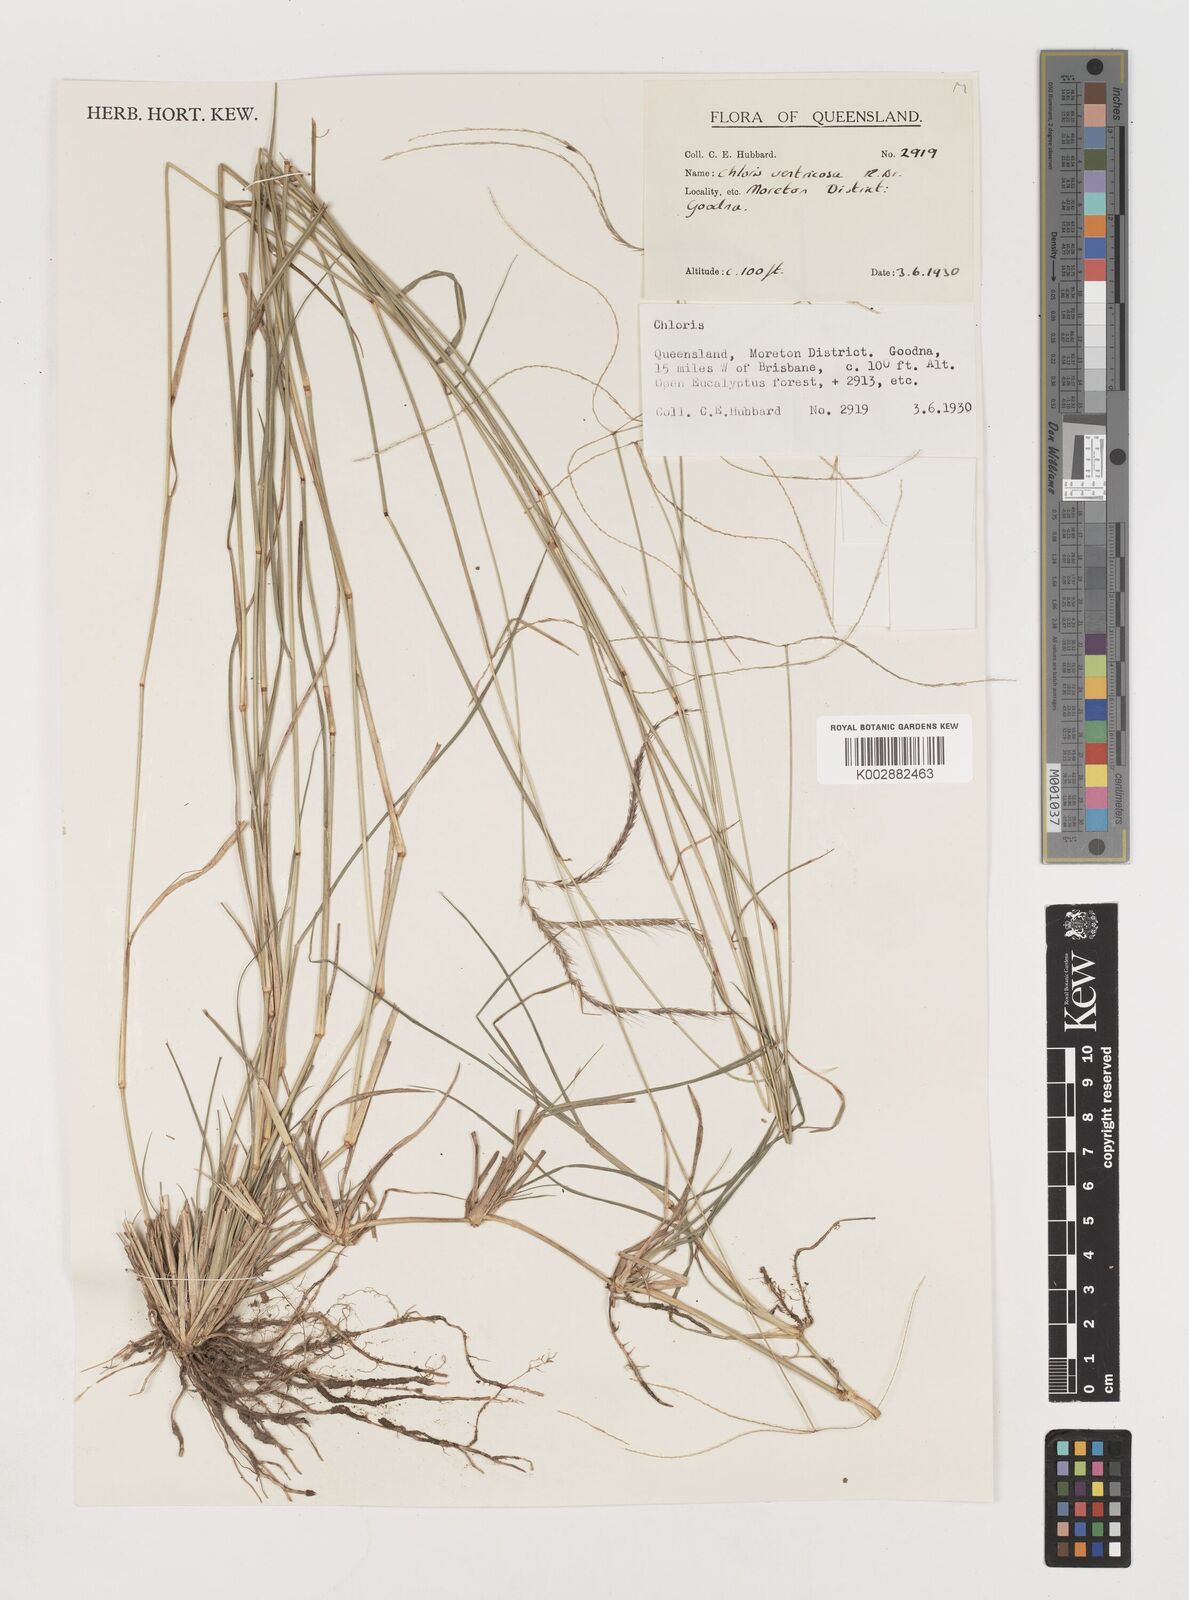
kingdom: Plantae
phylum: Tracheophyta
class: Liliopsida
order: Poales
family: Poaceae
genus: Chloris
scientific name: Chloris ventricosa
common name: Australian windmill grass
